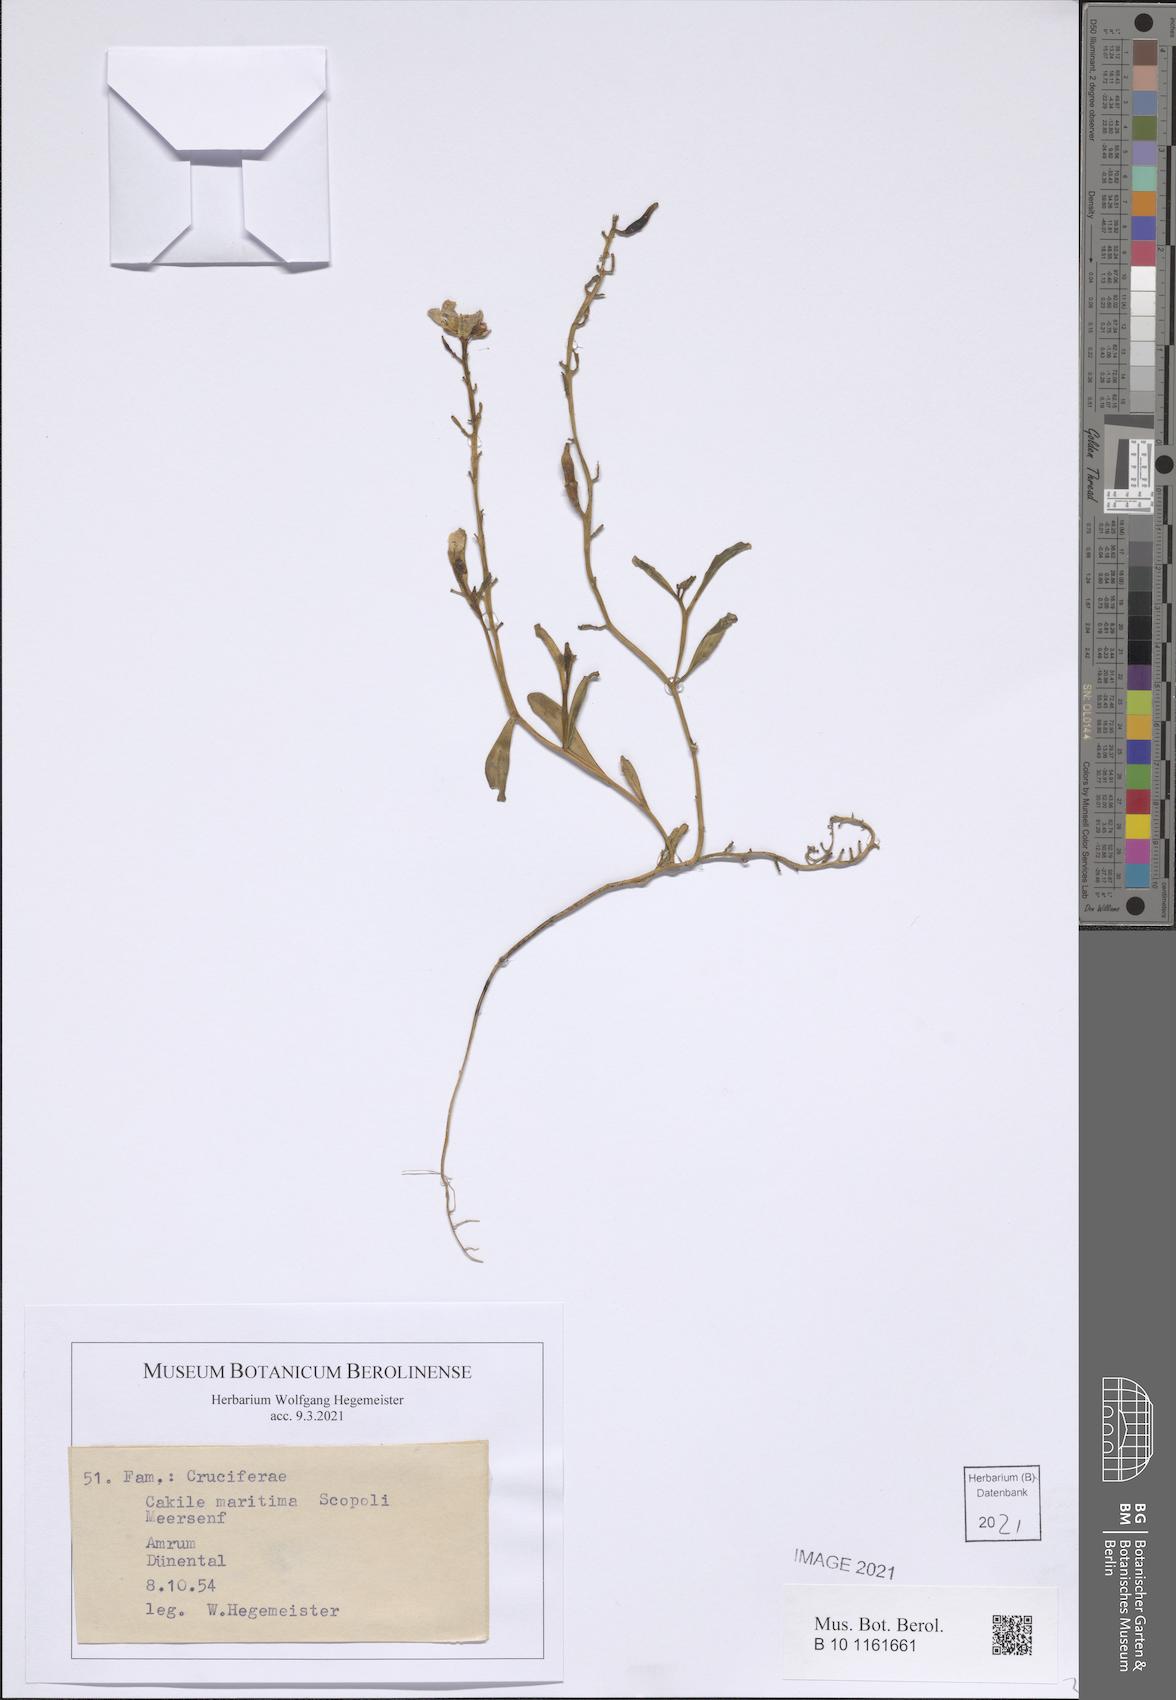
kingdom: Plantae
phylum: Tracheophyta
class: Magnoliopsida
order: Brassicales
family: Brassicaceae
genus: Cakile
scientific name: Cakile maritima
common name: Sea rocket
